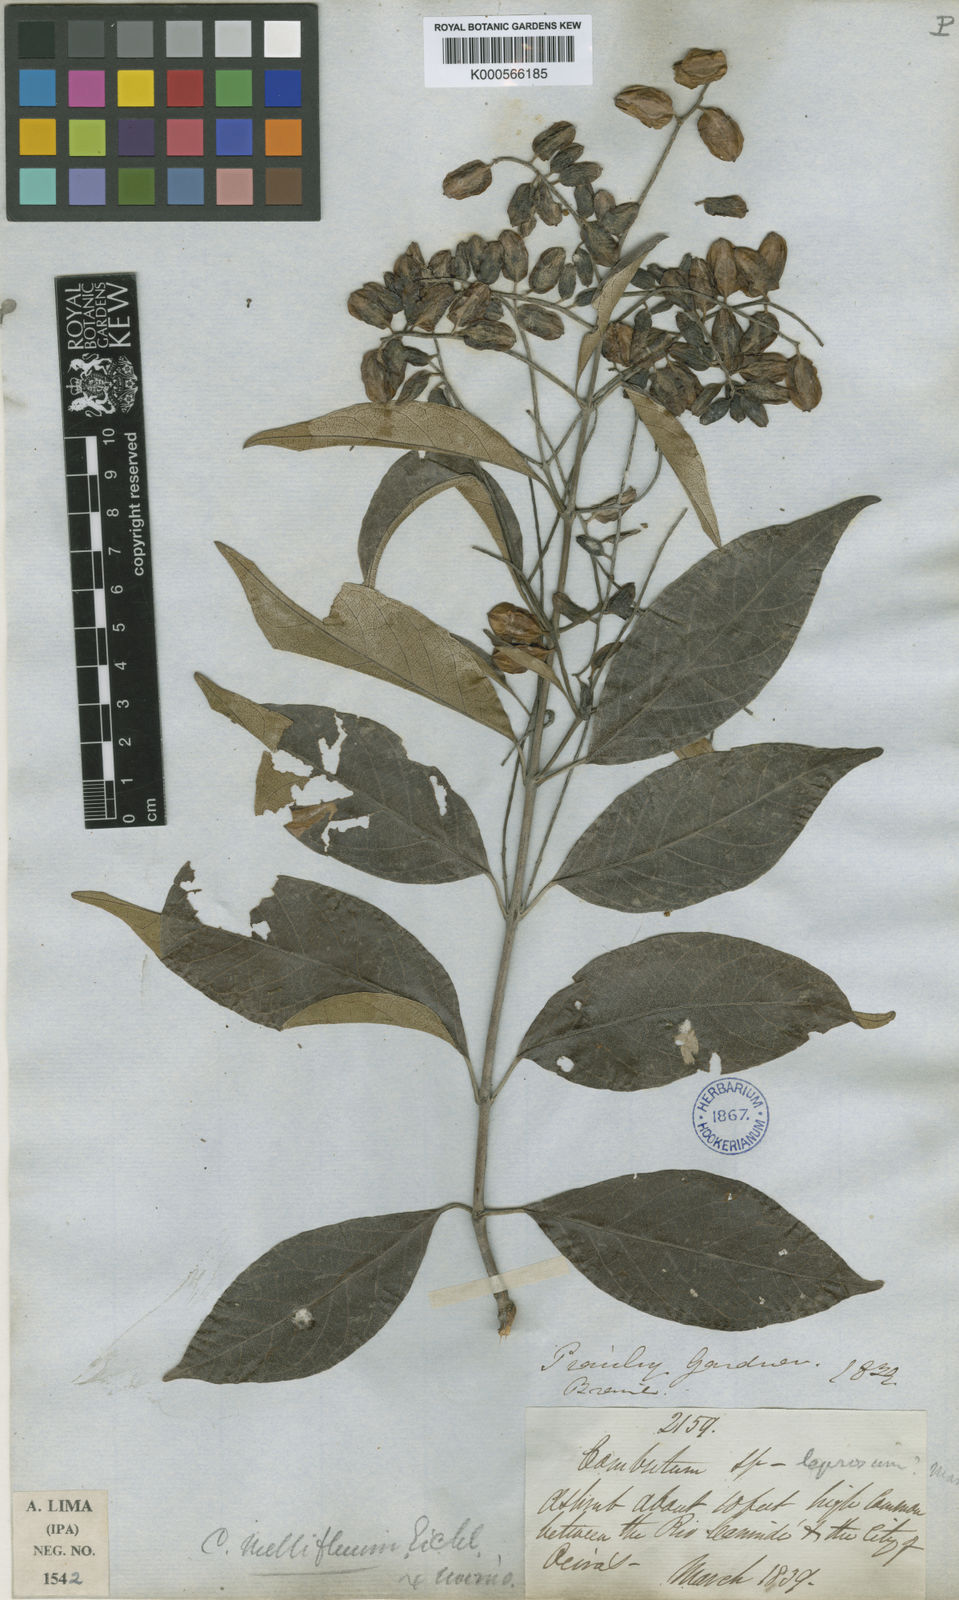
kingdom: Plantae
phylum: Tracheophyta
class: Magnoliopsida
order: Myrtales
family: Combretaceae
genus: Combretum
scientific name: Combretum mellifluum
